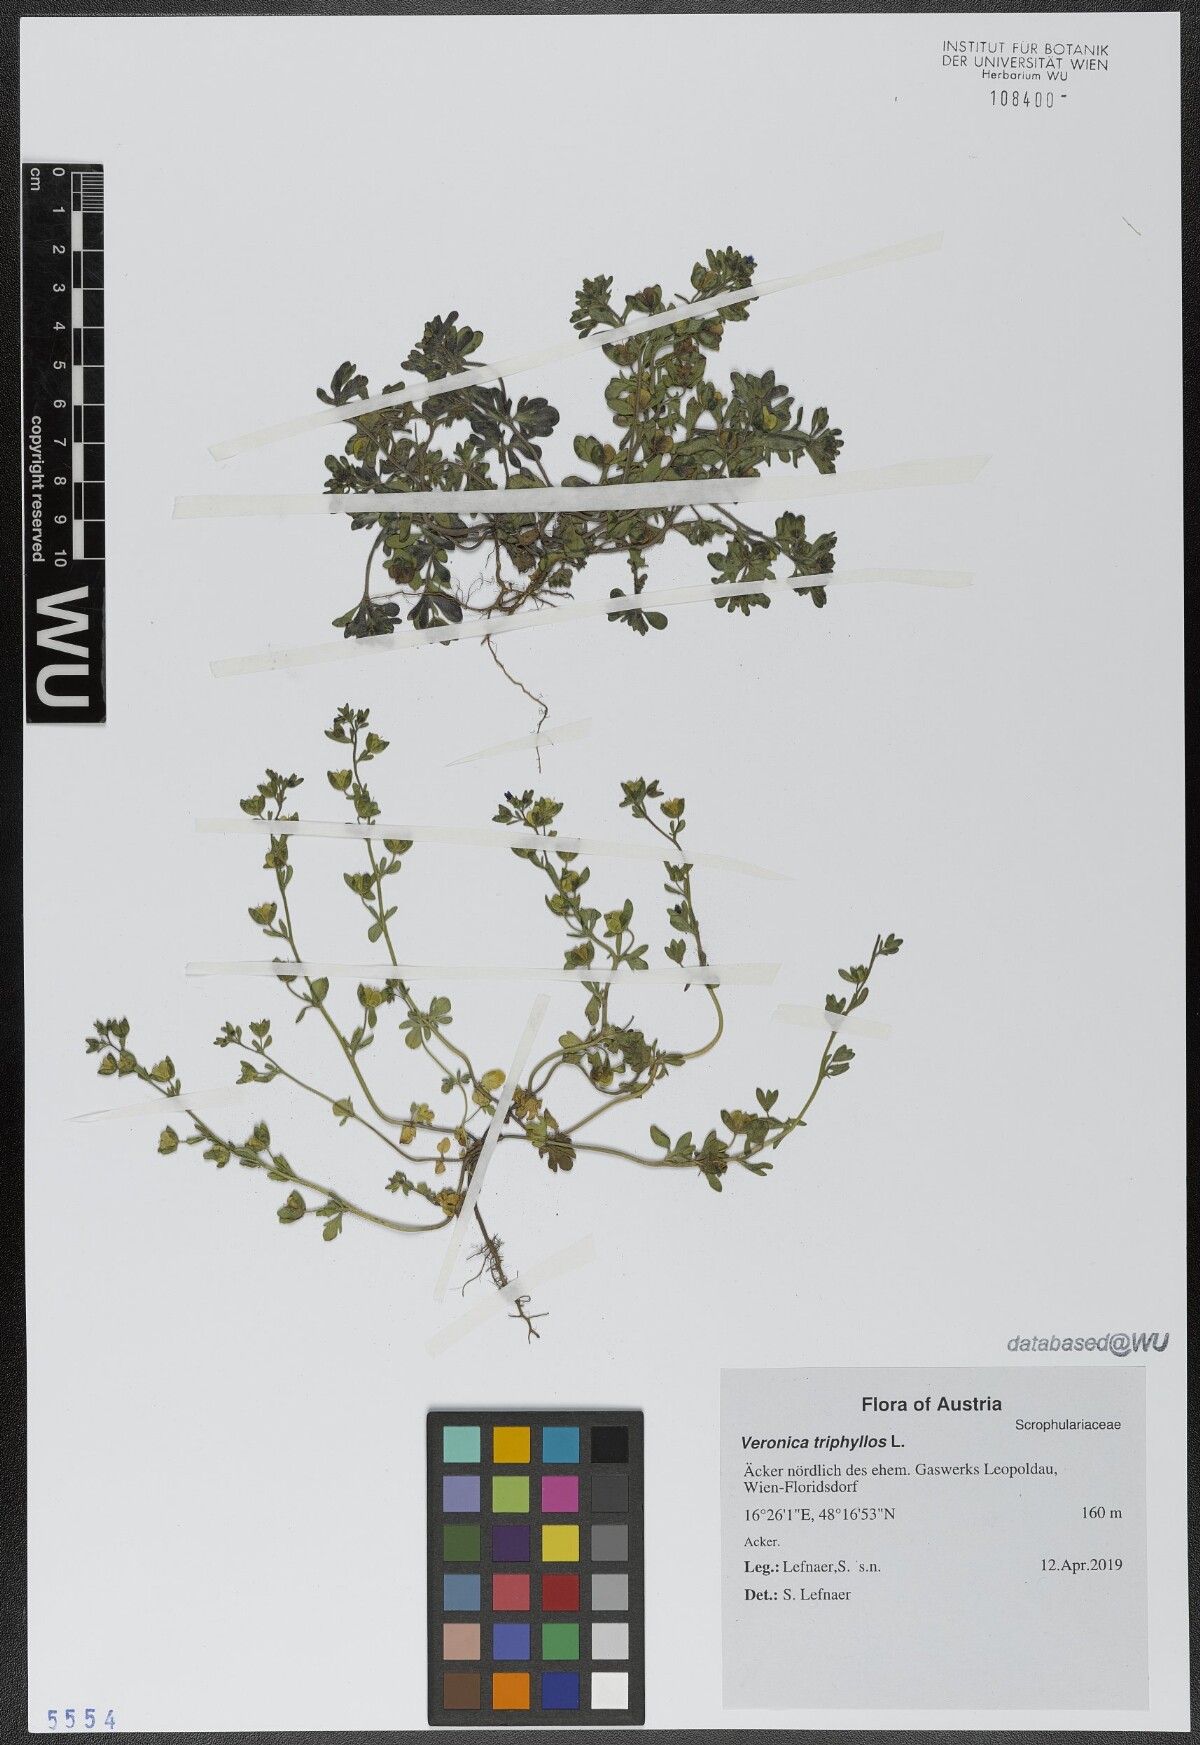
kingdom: Plantae
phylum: Tracheophyta
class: Magnoliopsida
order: Lamiales
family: Plantaginaceae
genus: Veronica
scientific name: Veronica triphyllos
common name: Fingered speedwell
